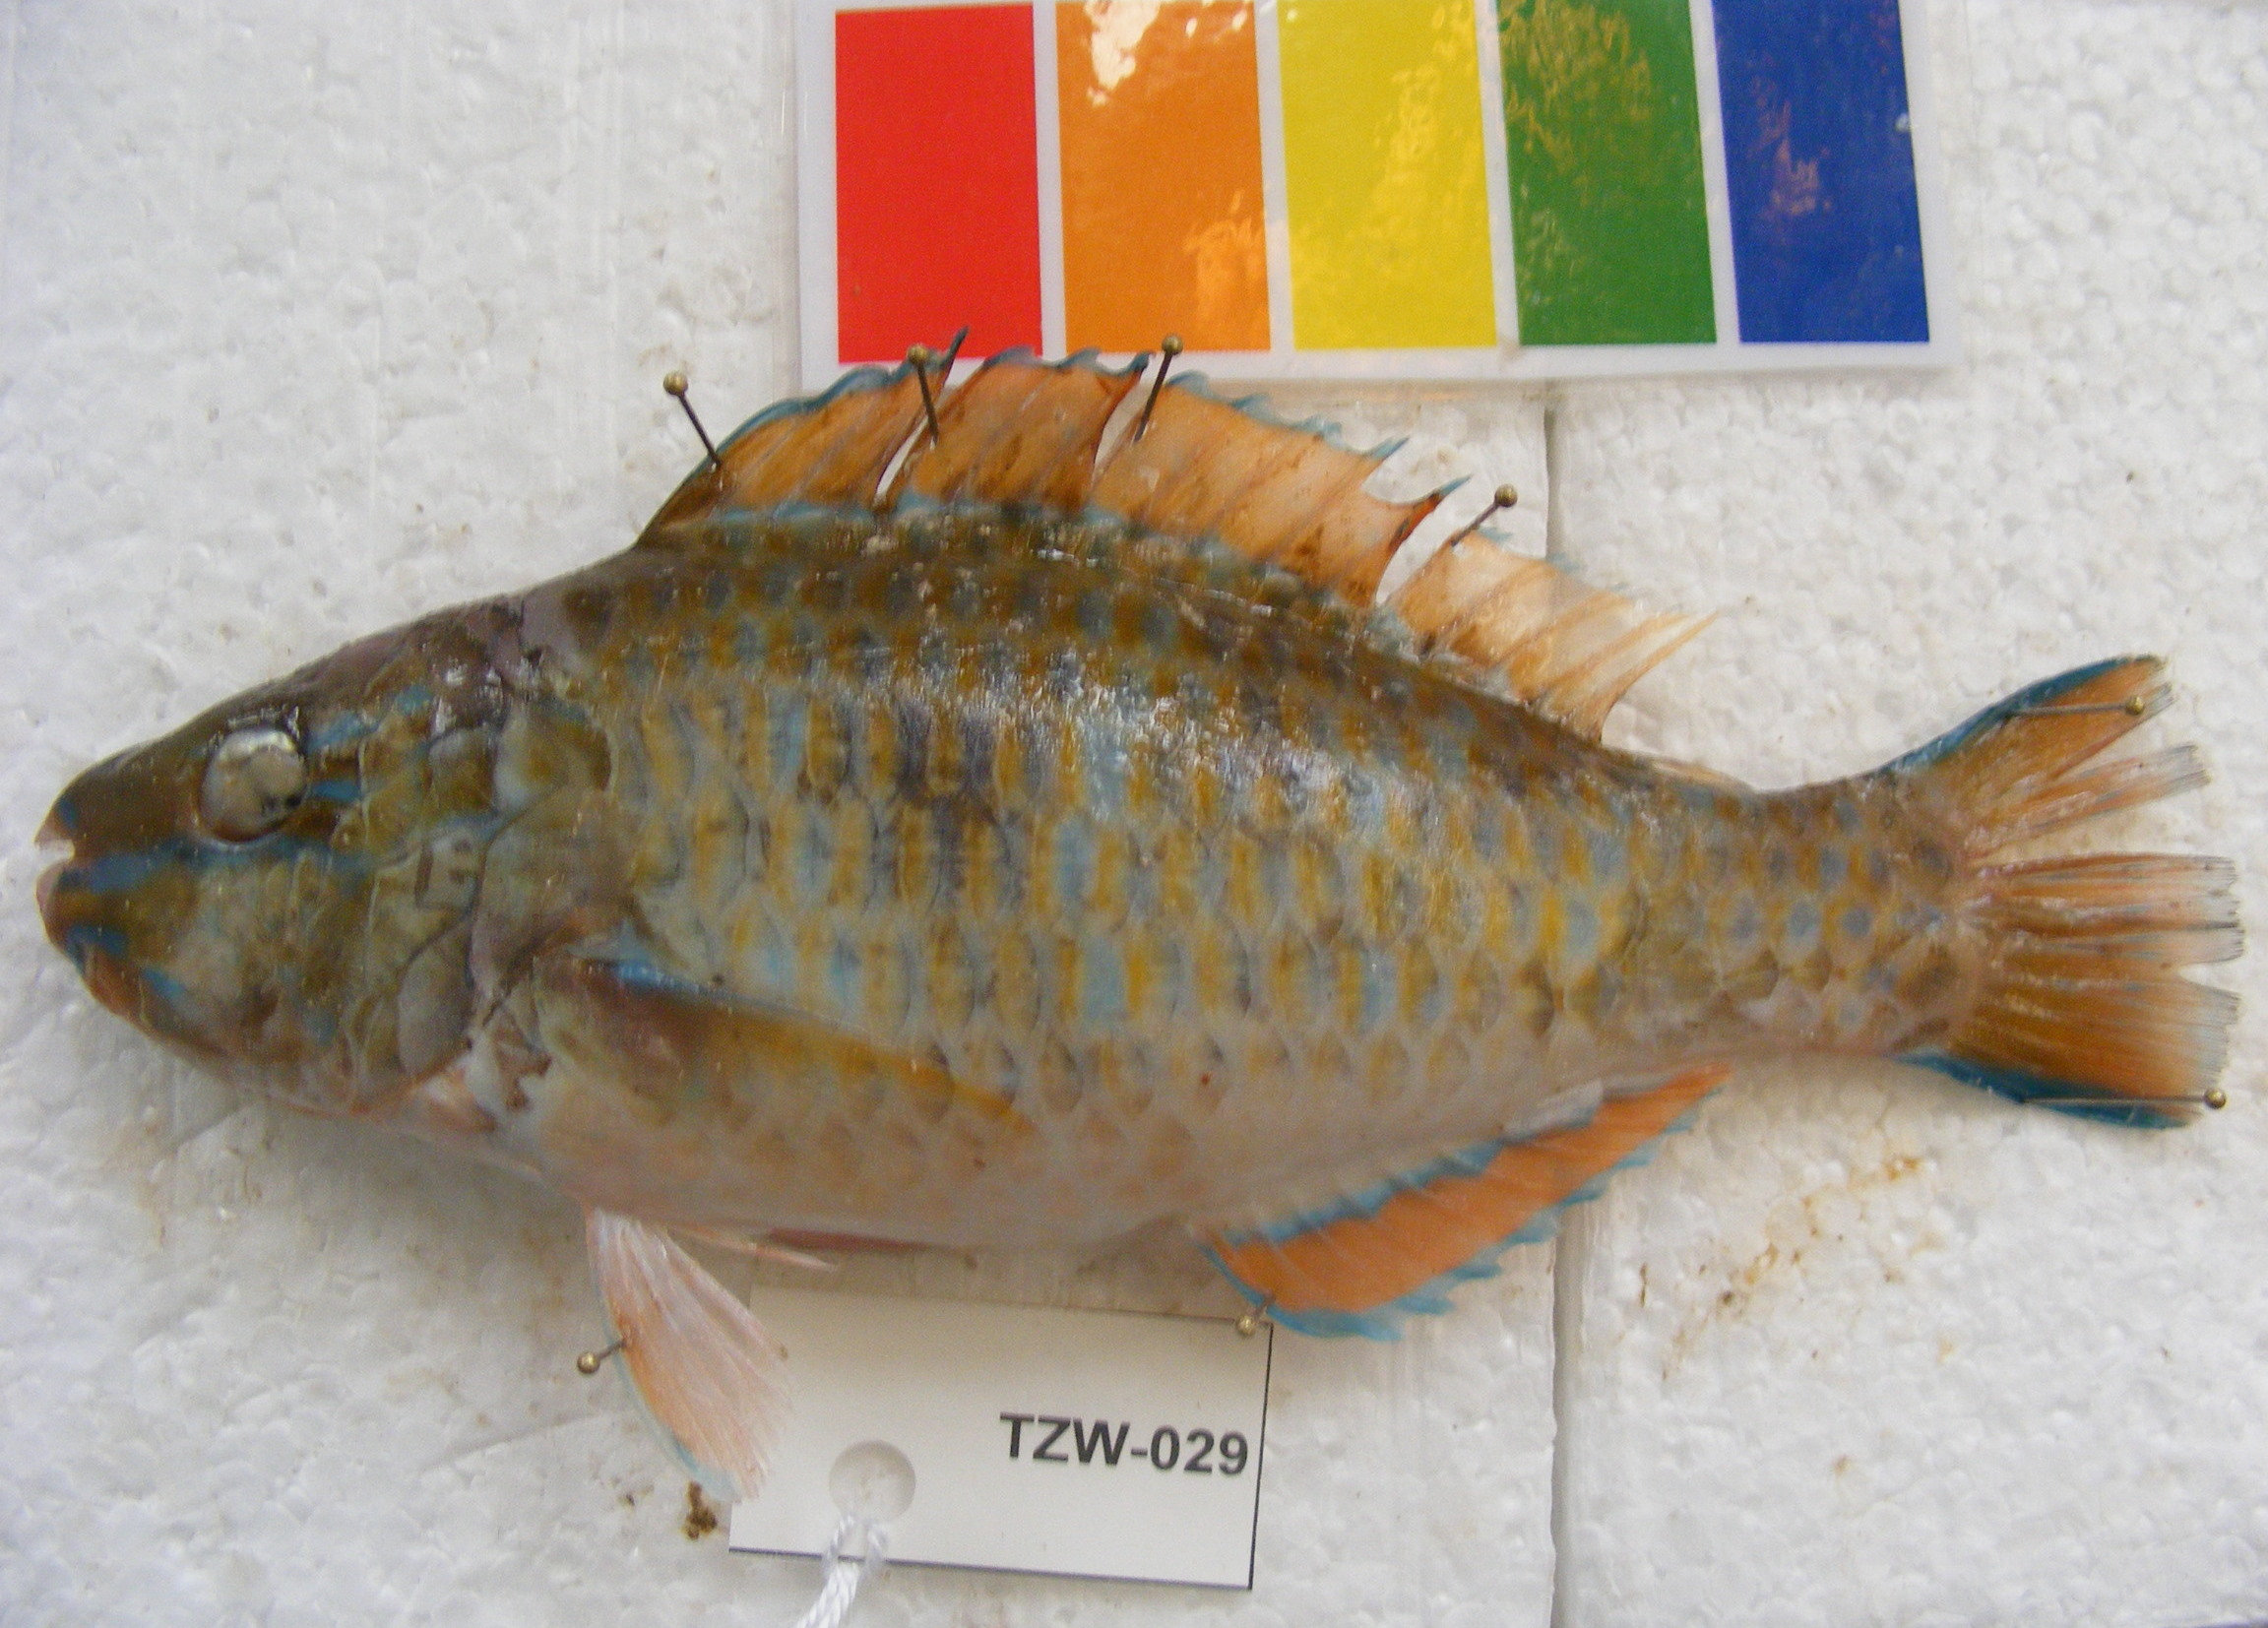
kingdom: Animalia
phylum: Chordata
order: Perciformes
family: Scaridae
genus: Scarus
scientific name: Scarus
